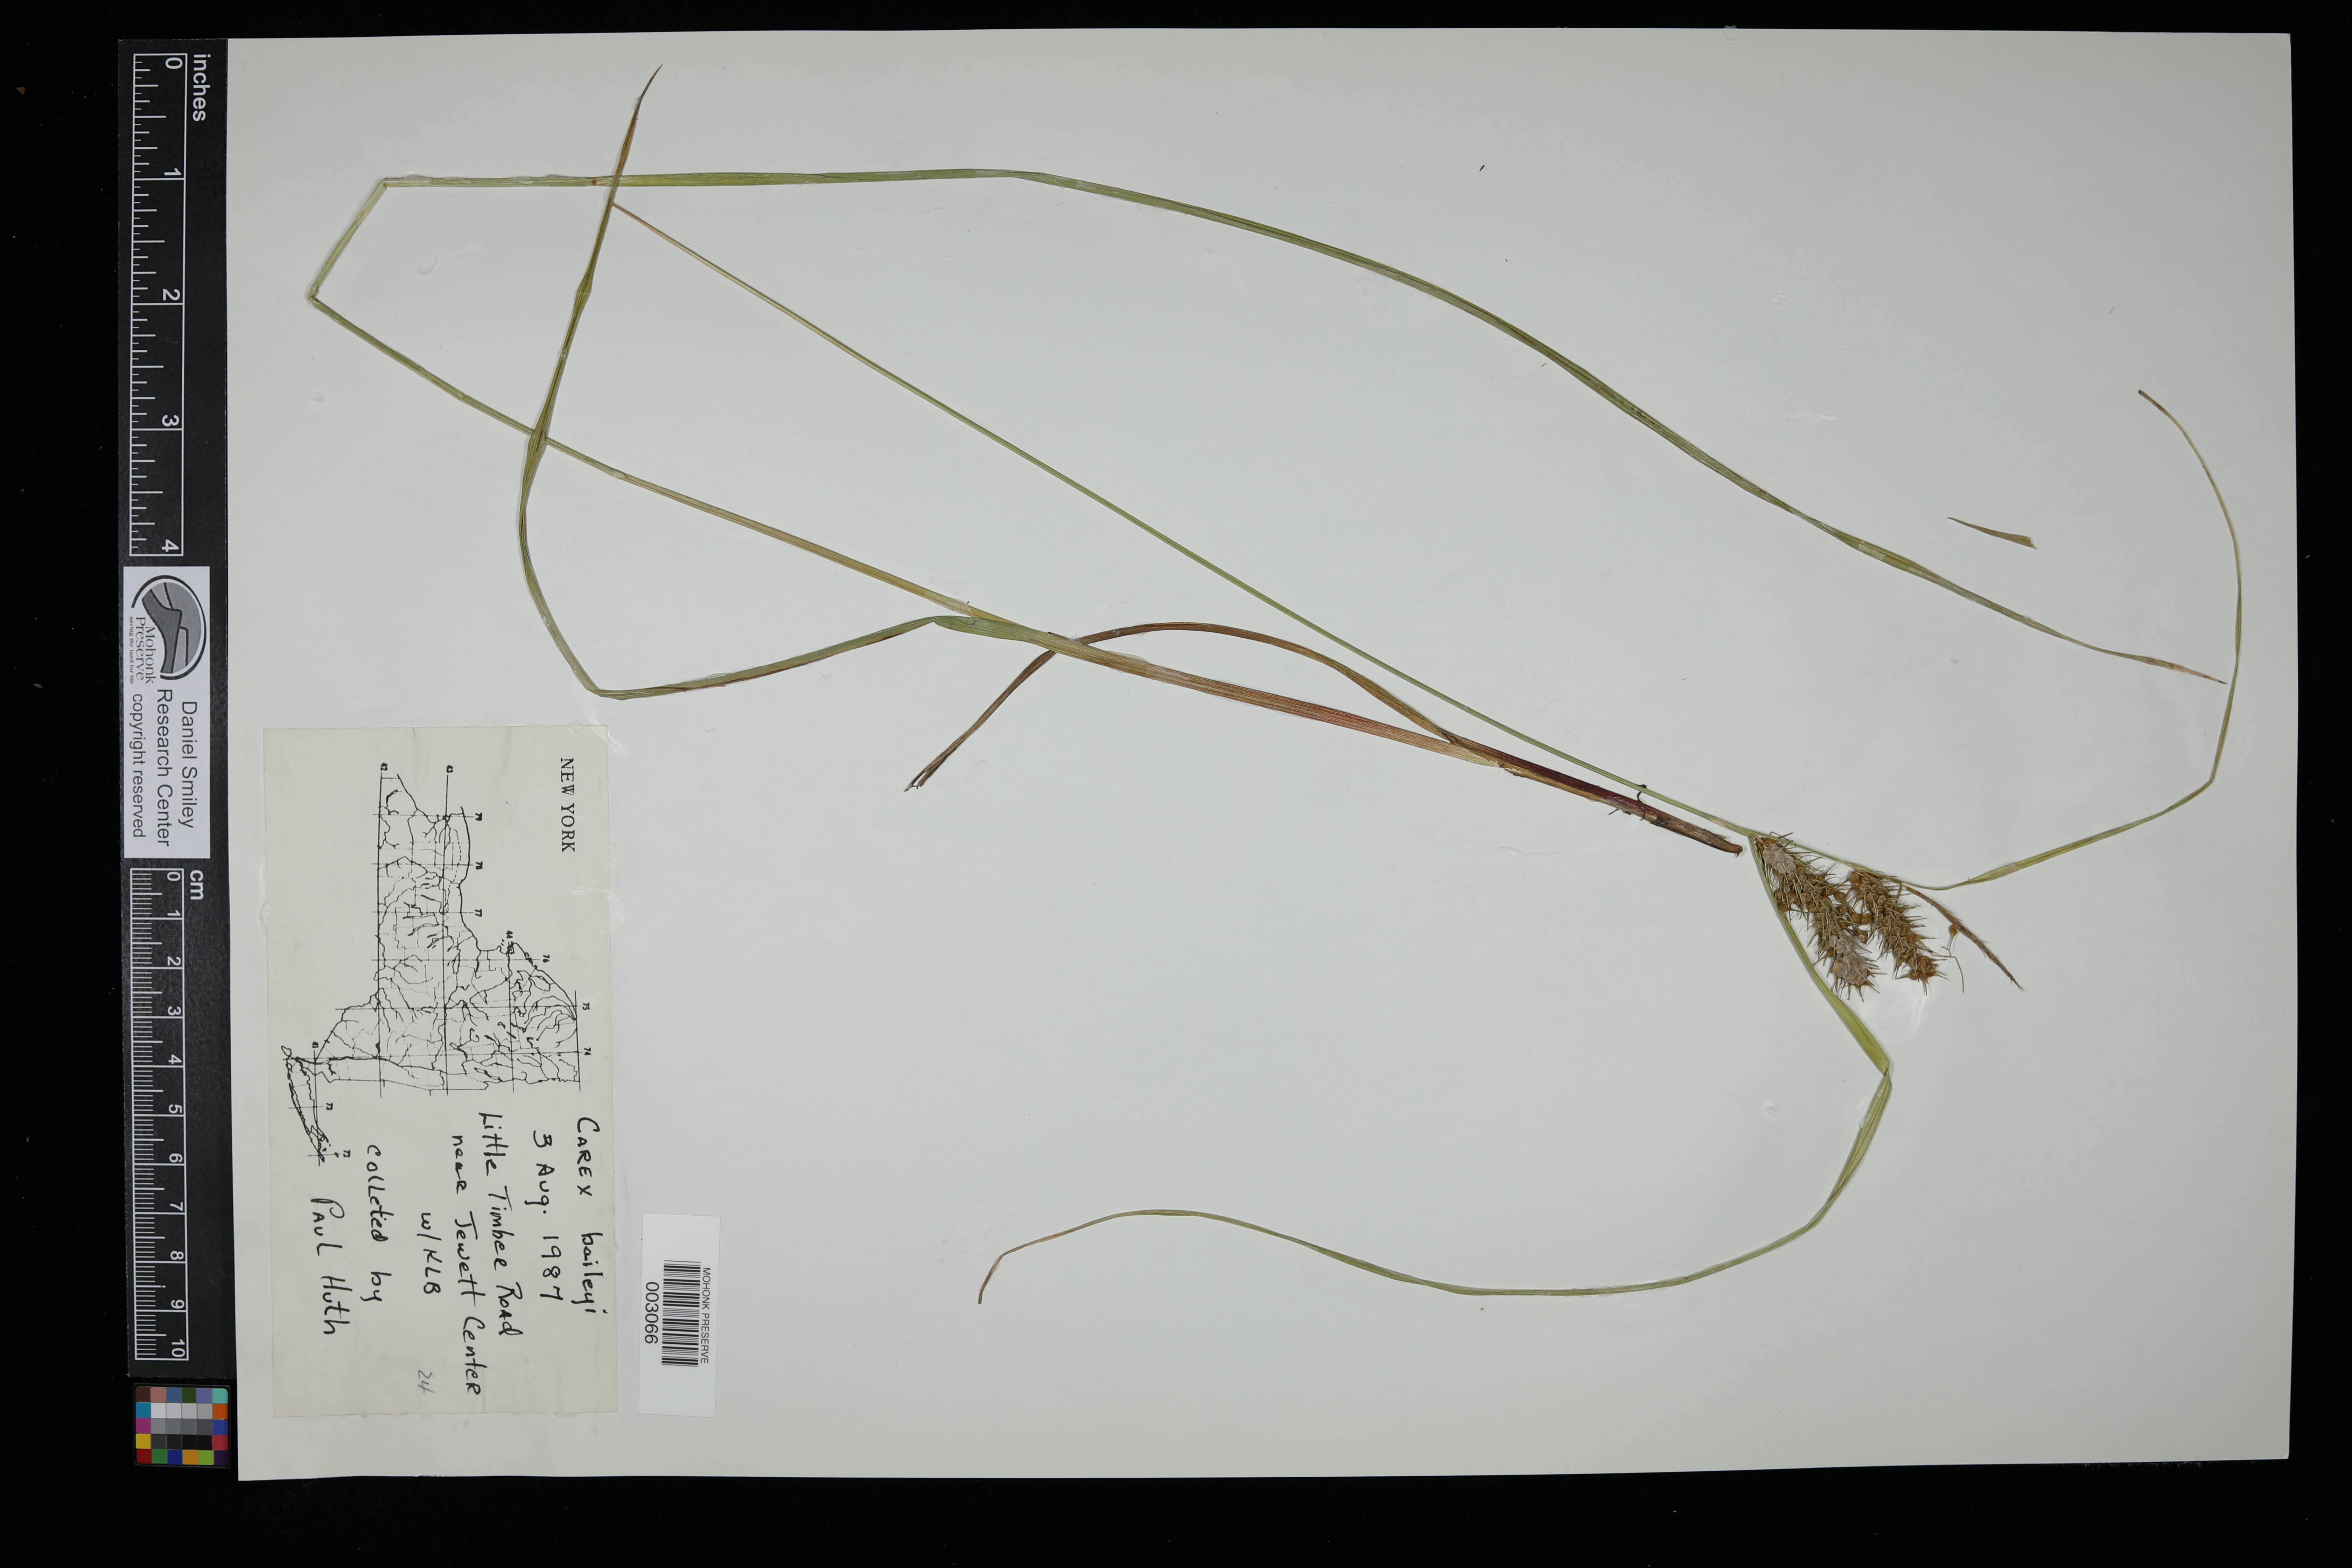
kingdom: Plantae
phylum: Tracheophyta
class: Liliopsida
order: Poales
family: Cyperaceae
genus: Carex
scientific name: Carex baileyi
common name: Bailey's sedge
